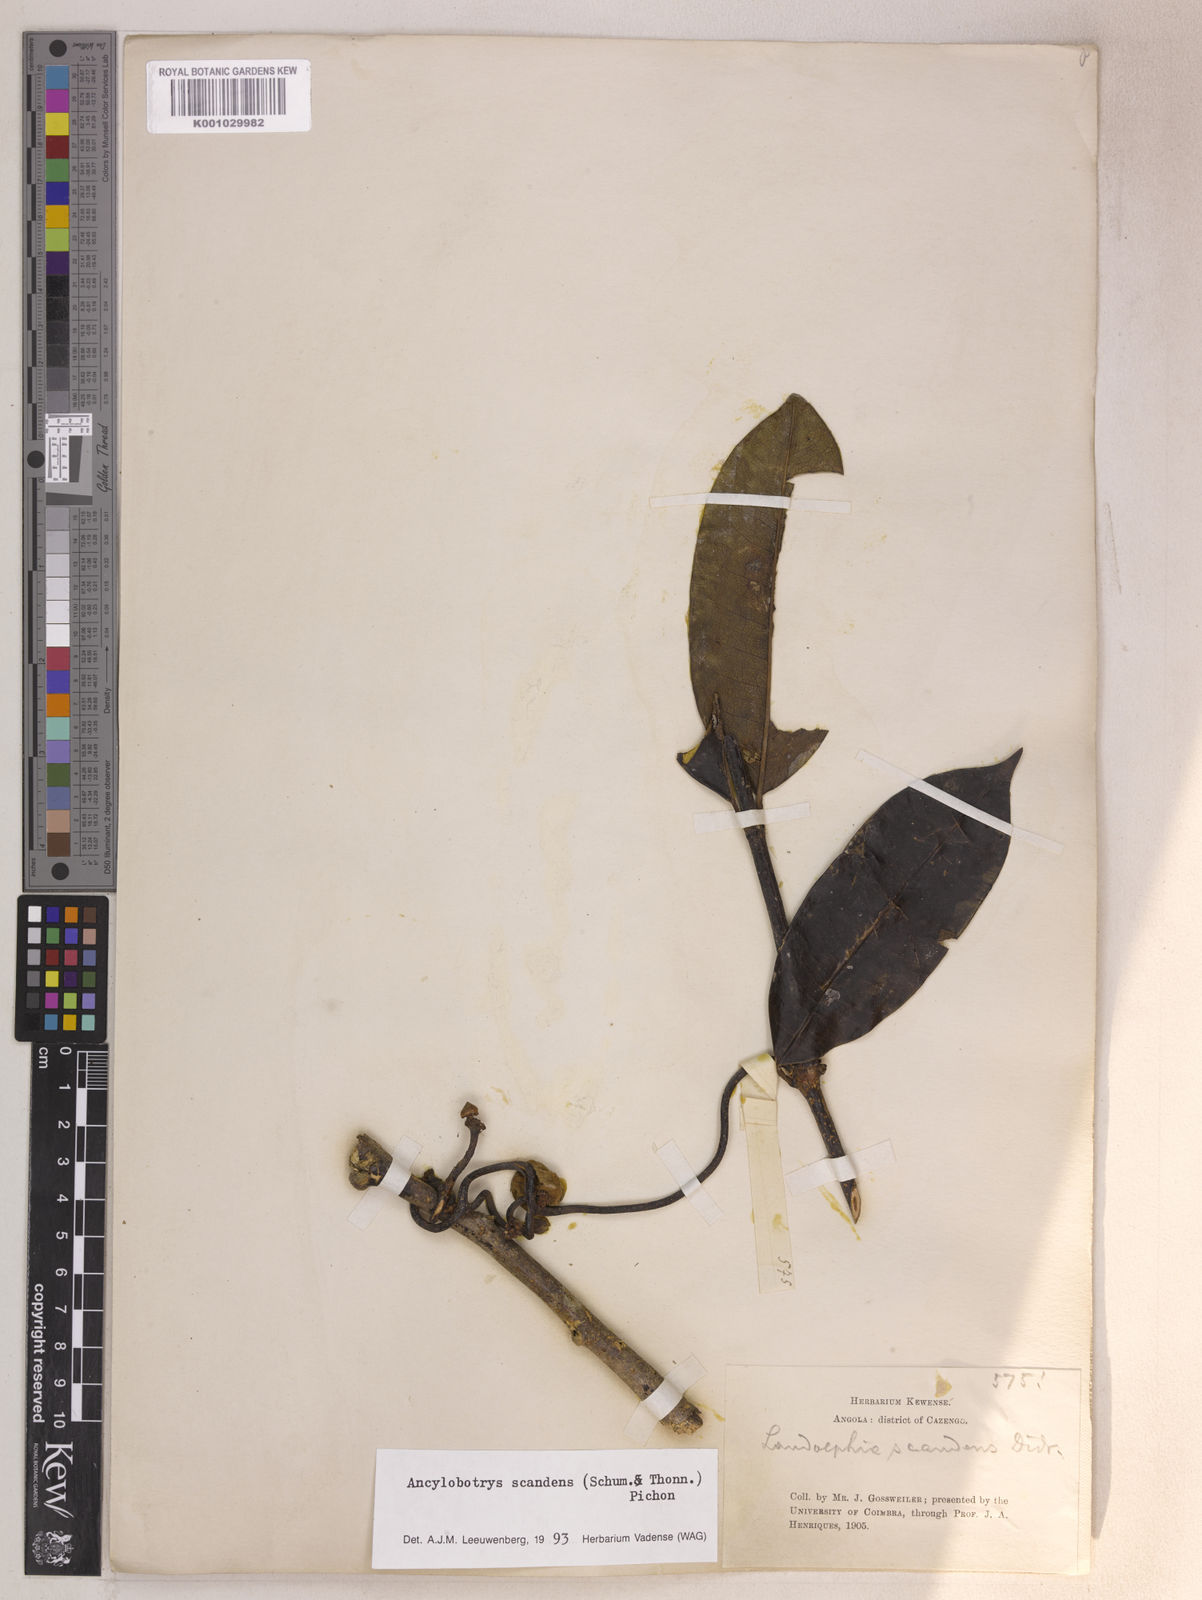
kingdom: Plantae
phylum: Tracheophyta
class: Magnoliopsida
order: Gentianales
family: Apocynaceae
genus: Ancylobothrys
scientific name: Ancylobothrys scandens
